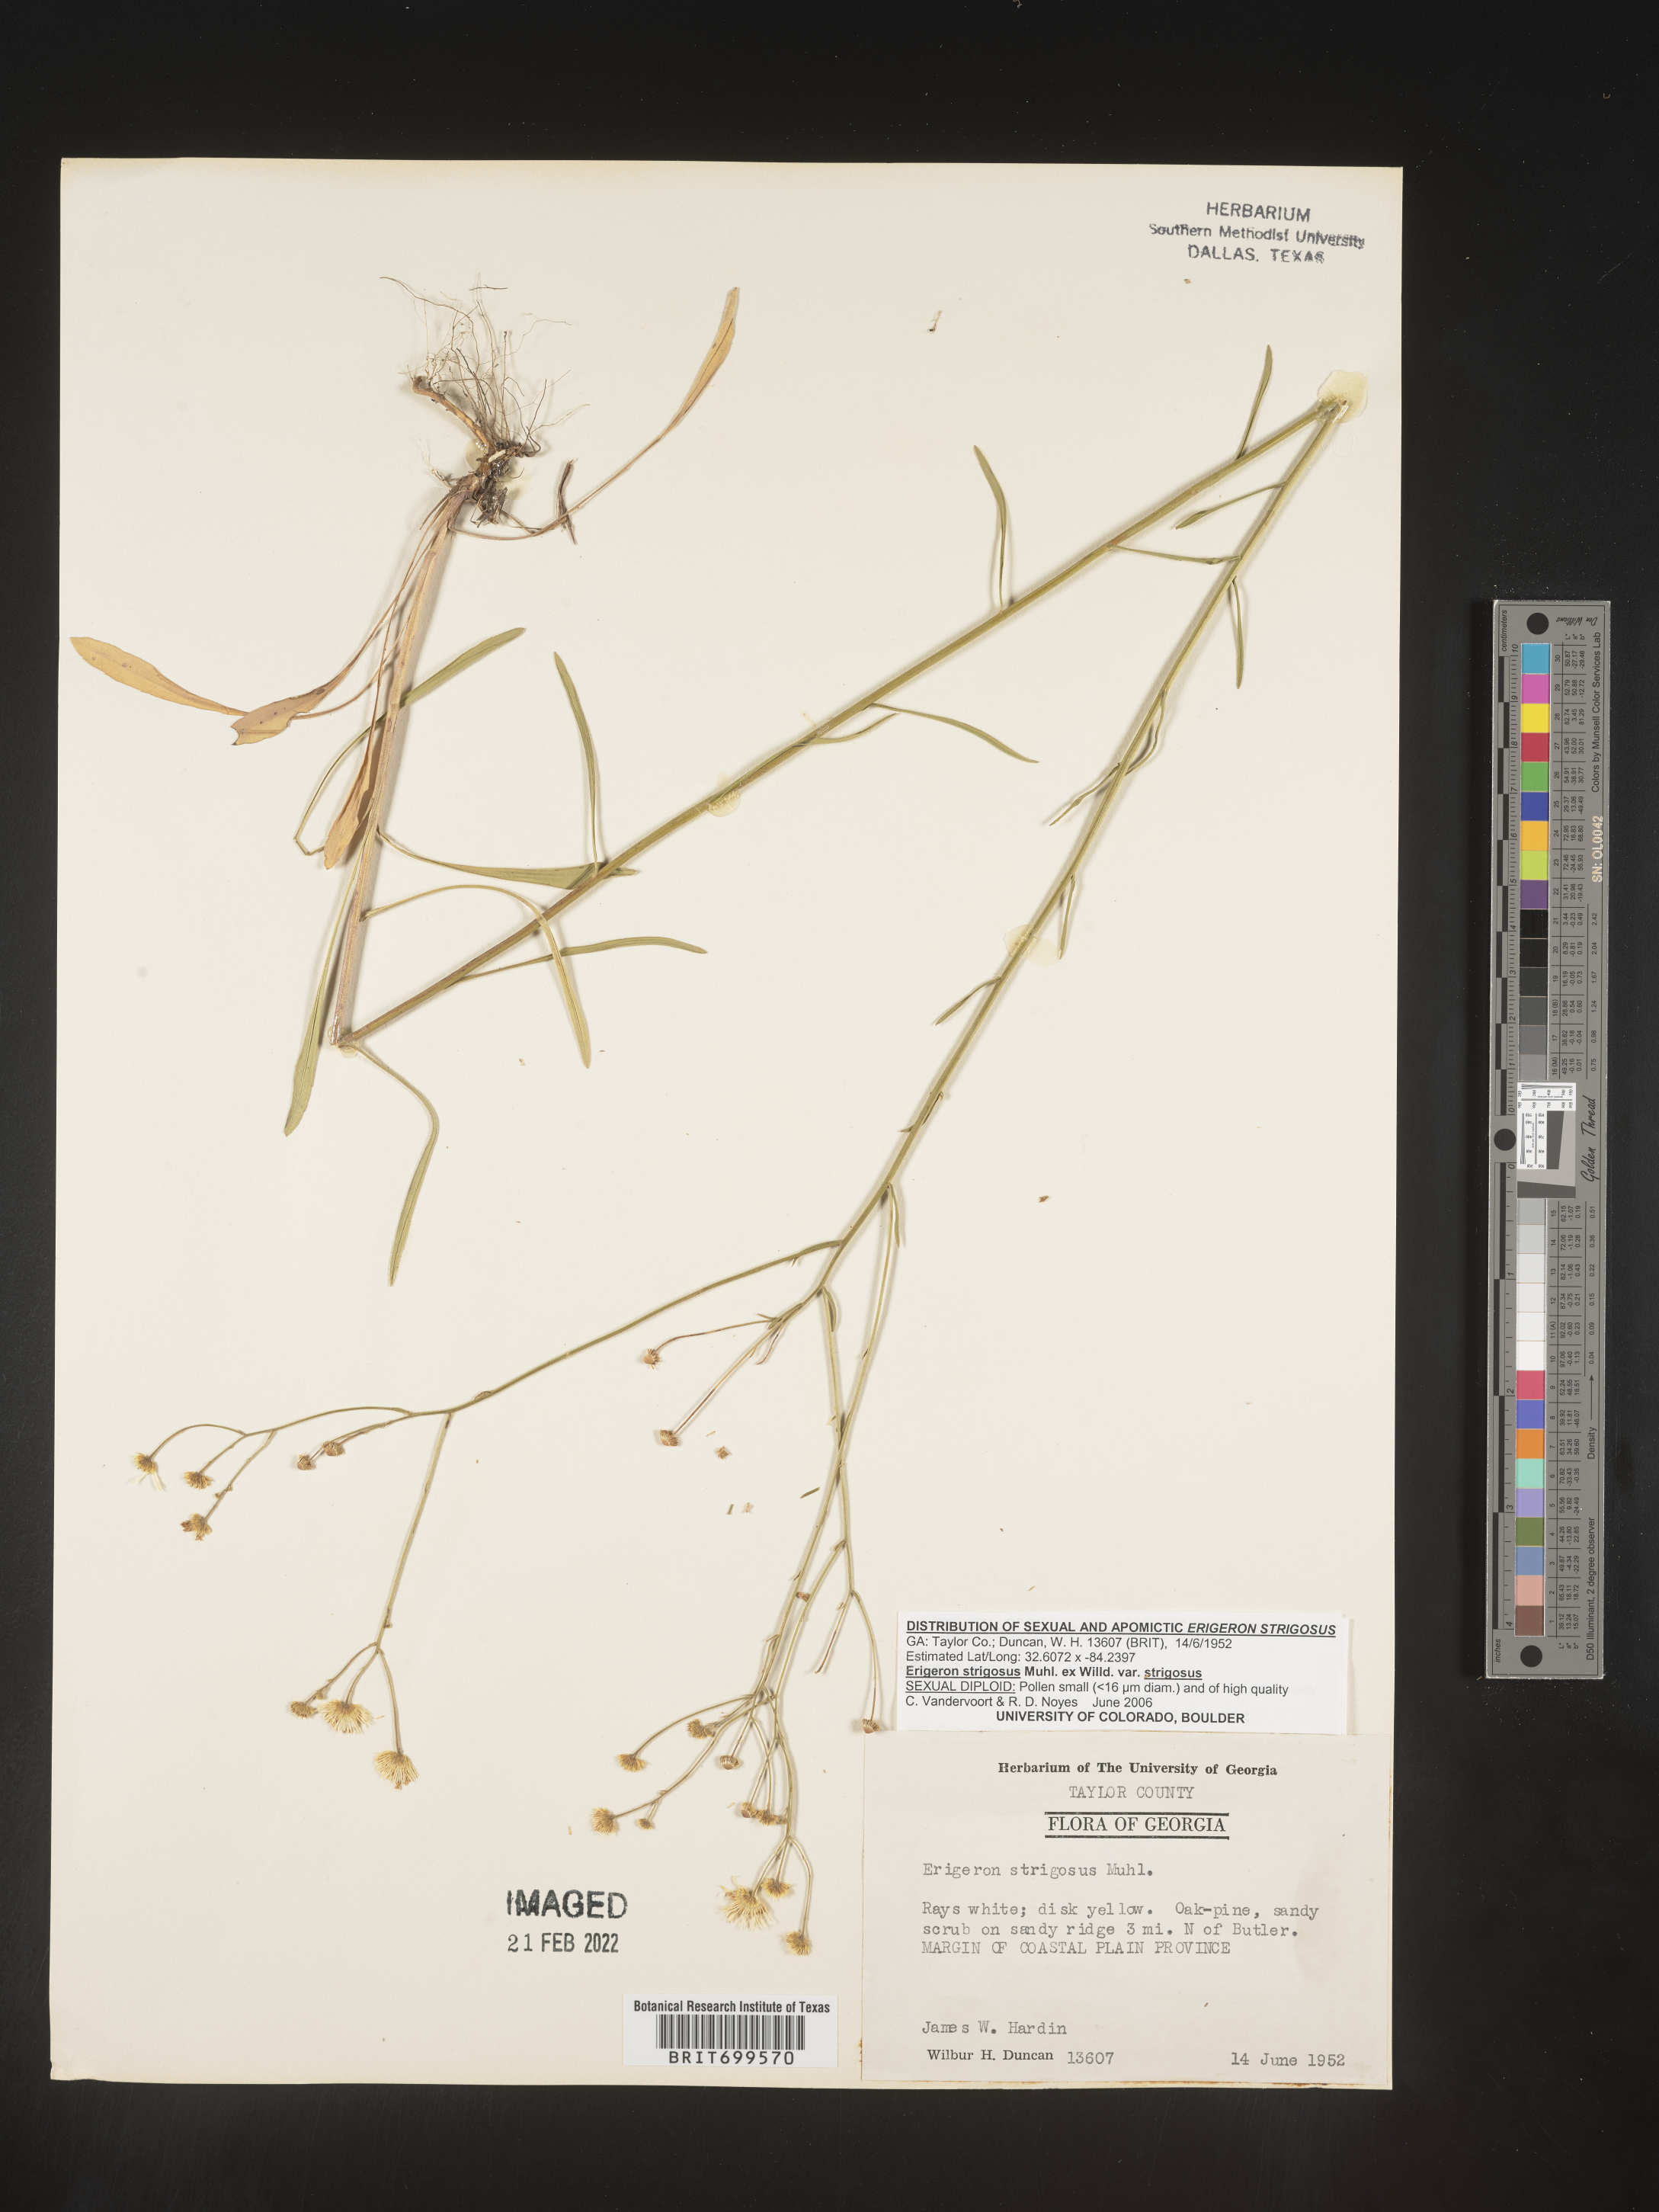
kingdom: Plantae
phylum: Tracheophyta
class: Magnoliopsida
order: Asterales
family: Asteraceae
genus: Erigeron
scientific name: Erigeron strigosus
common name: Common eastern fleabane
